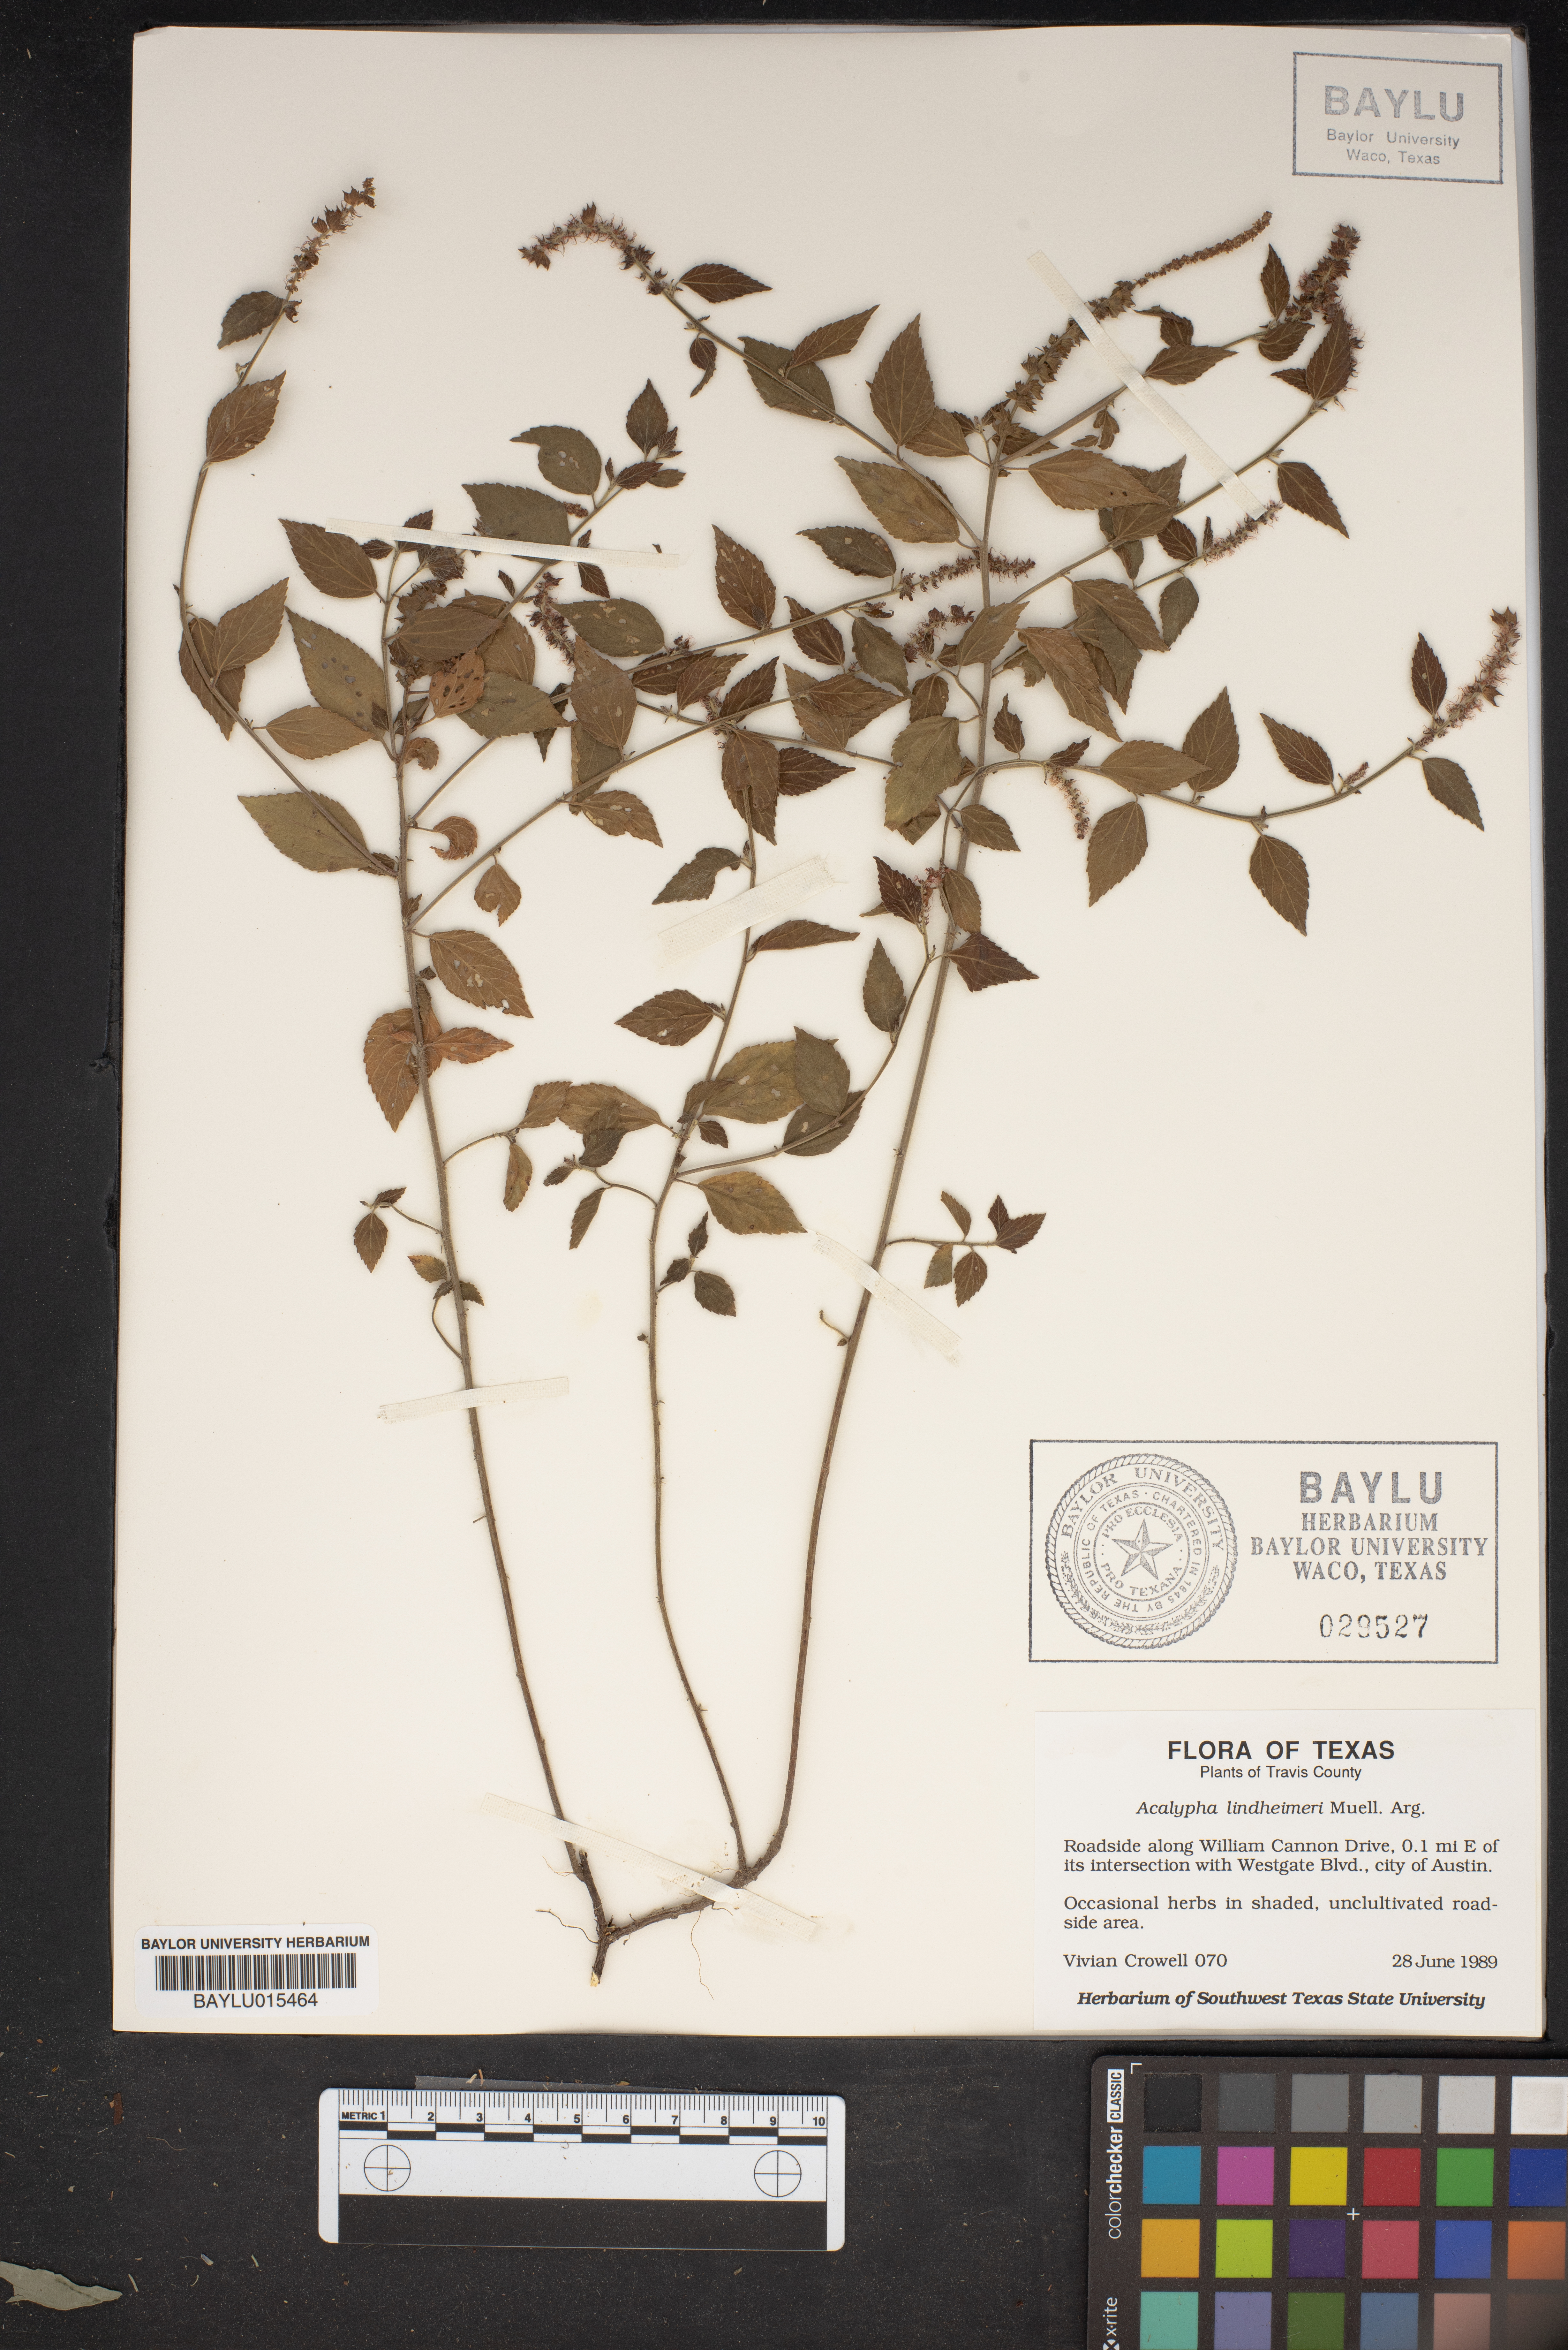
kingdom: Plantae
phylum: Tracheophyta
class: Magnoliopsida
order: Malpighiales
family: Euphorbiaceae
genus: Acalypha
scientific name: Acalypha phleoides
